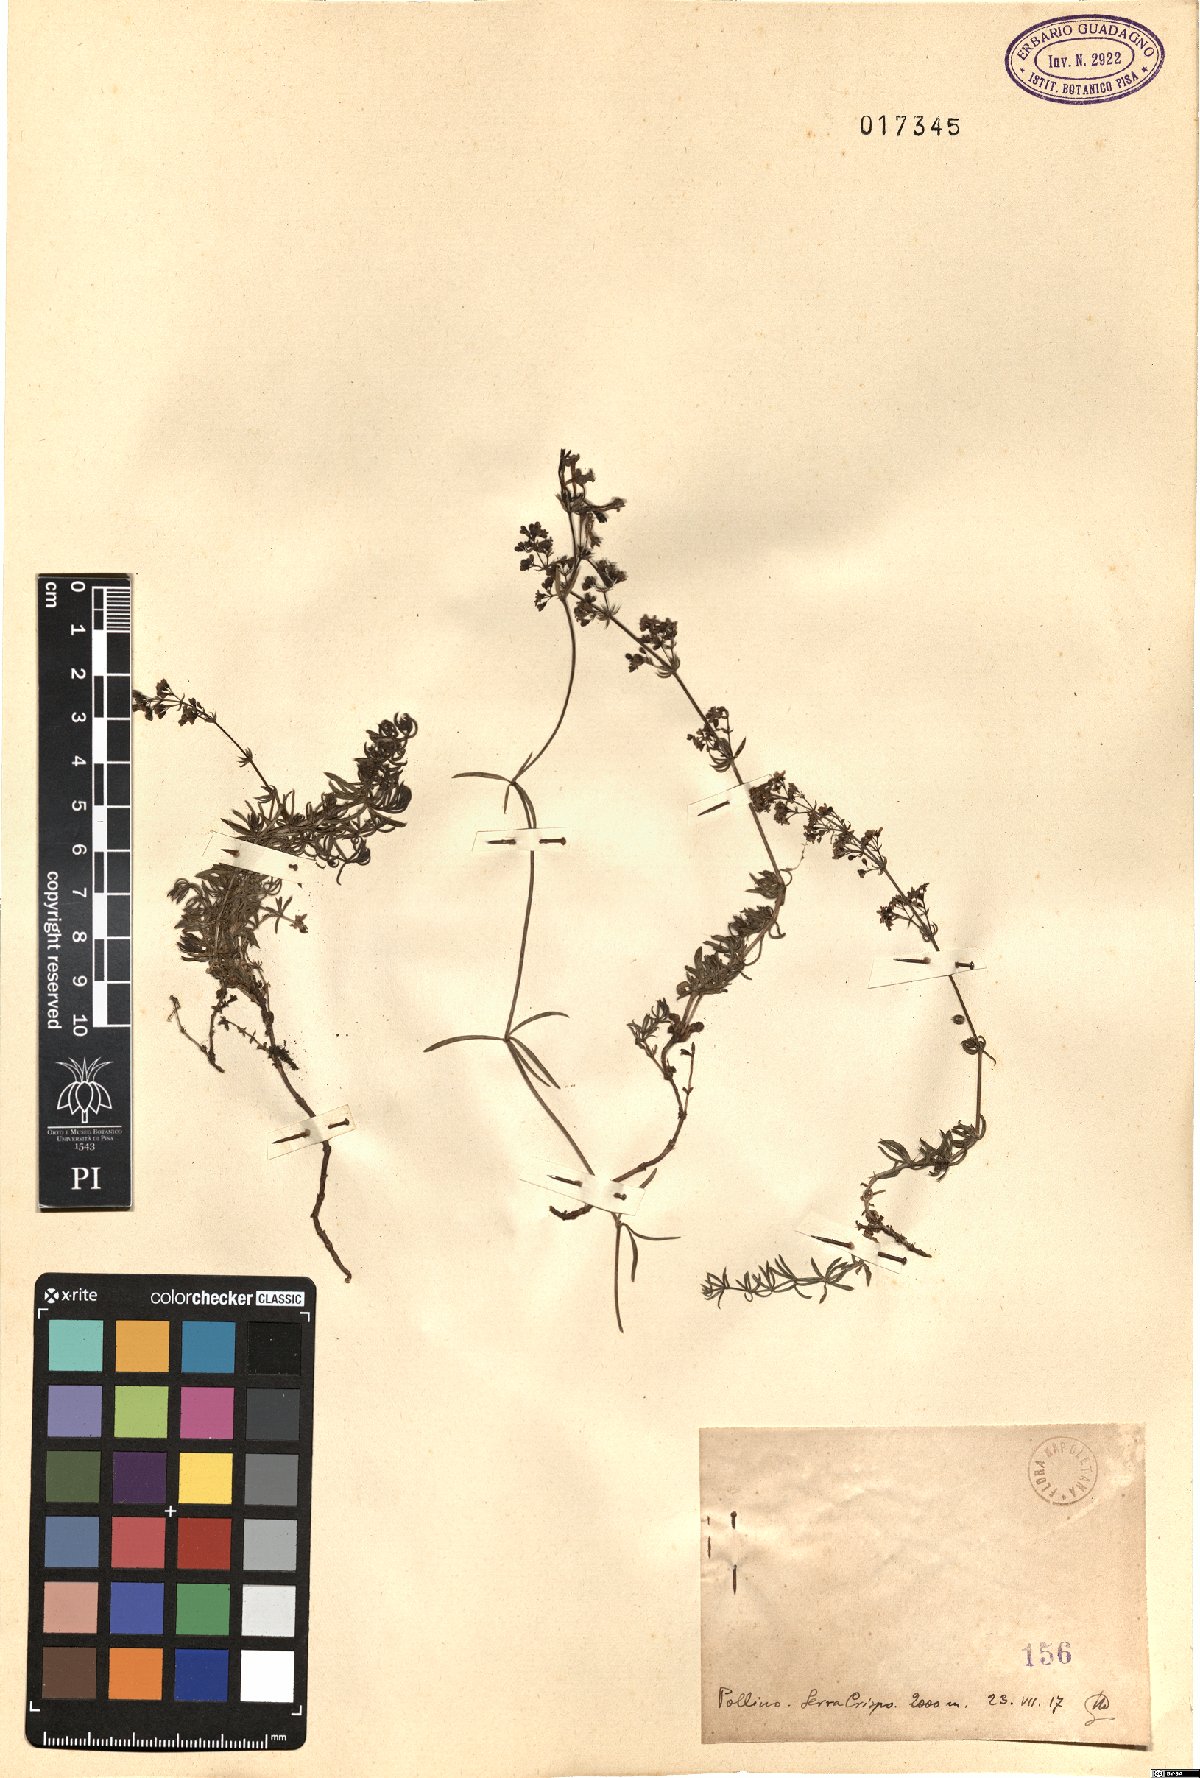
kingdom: Plantae
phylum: Tracheophyta
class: Magnoliopsida
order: Gentianales
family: Rubiaceae
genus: Galium
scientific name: Galium
